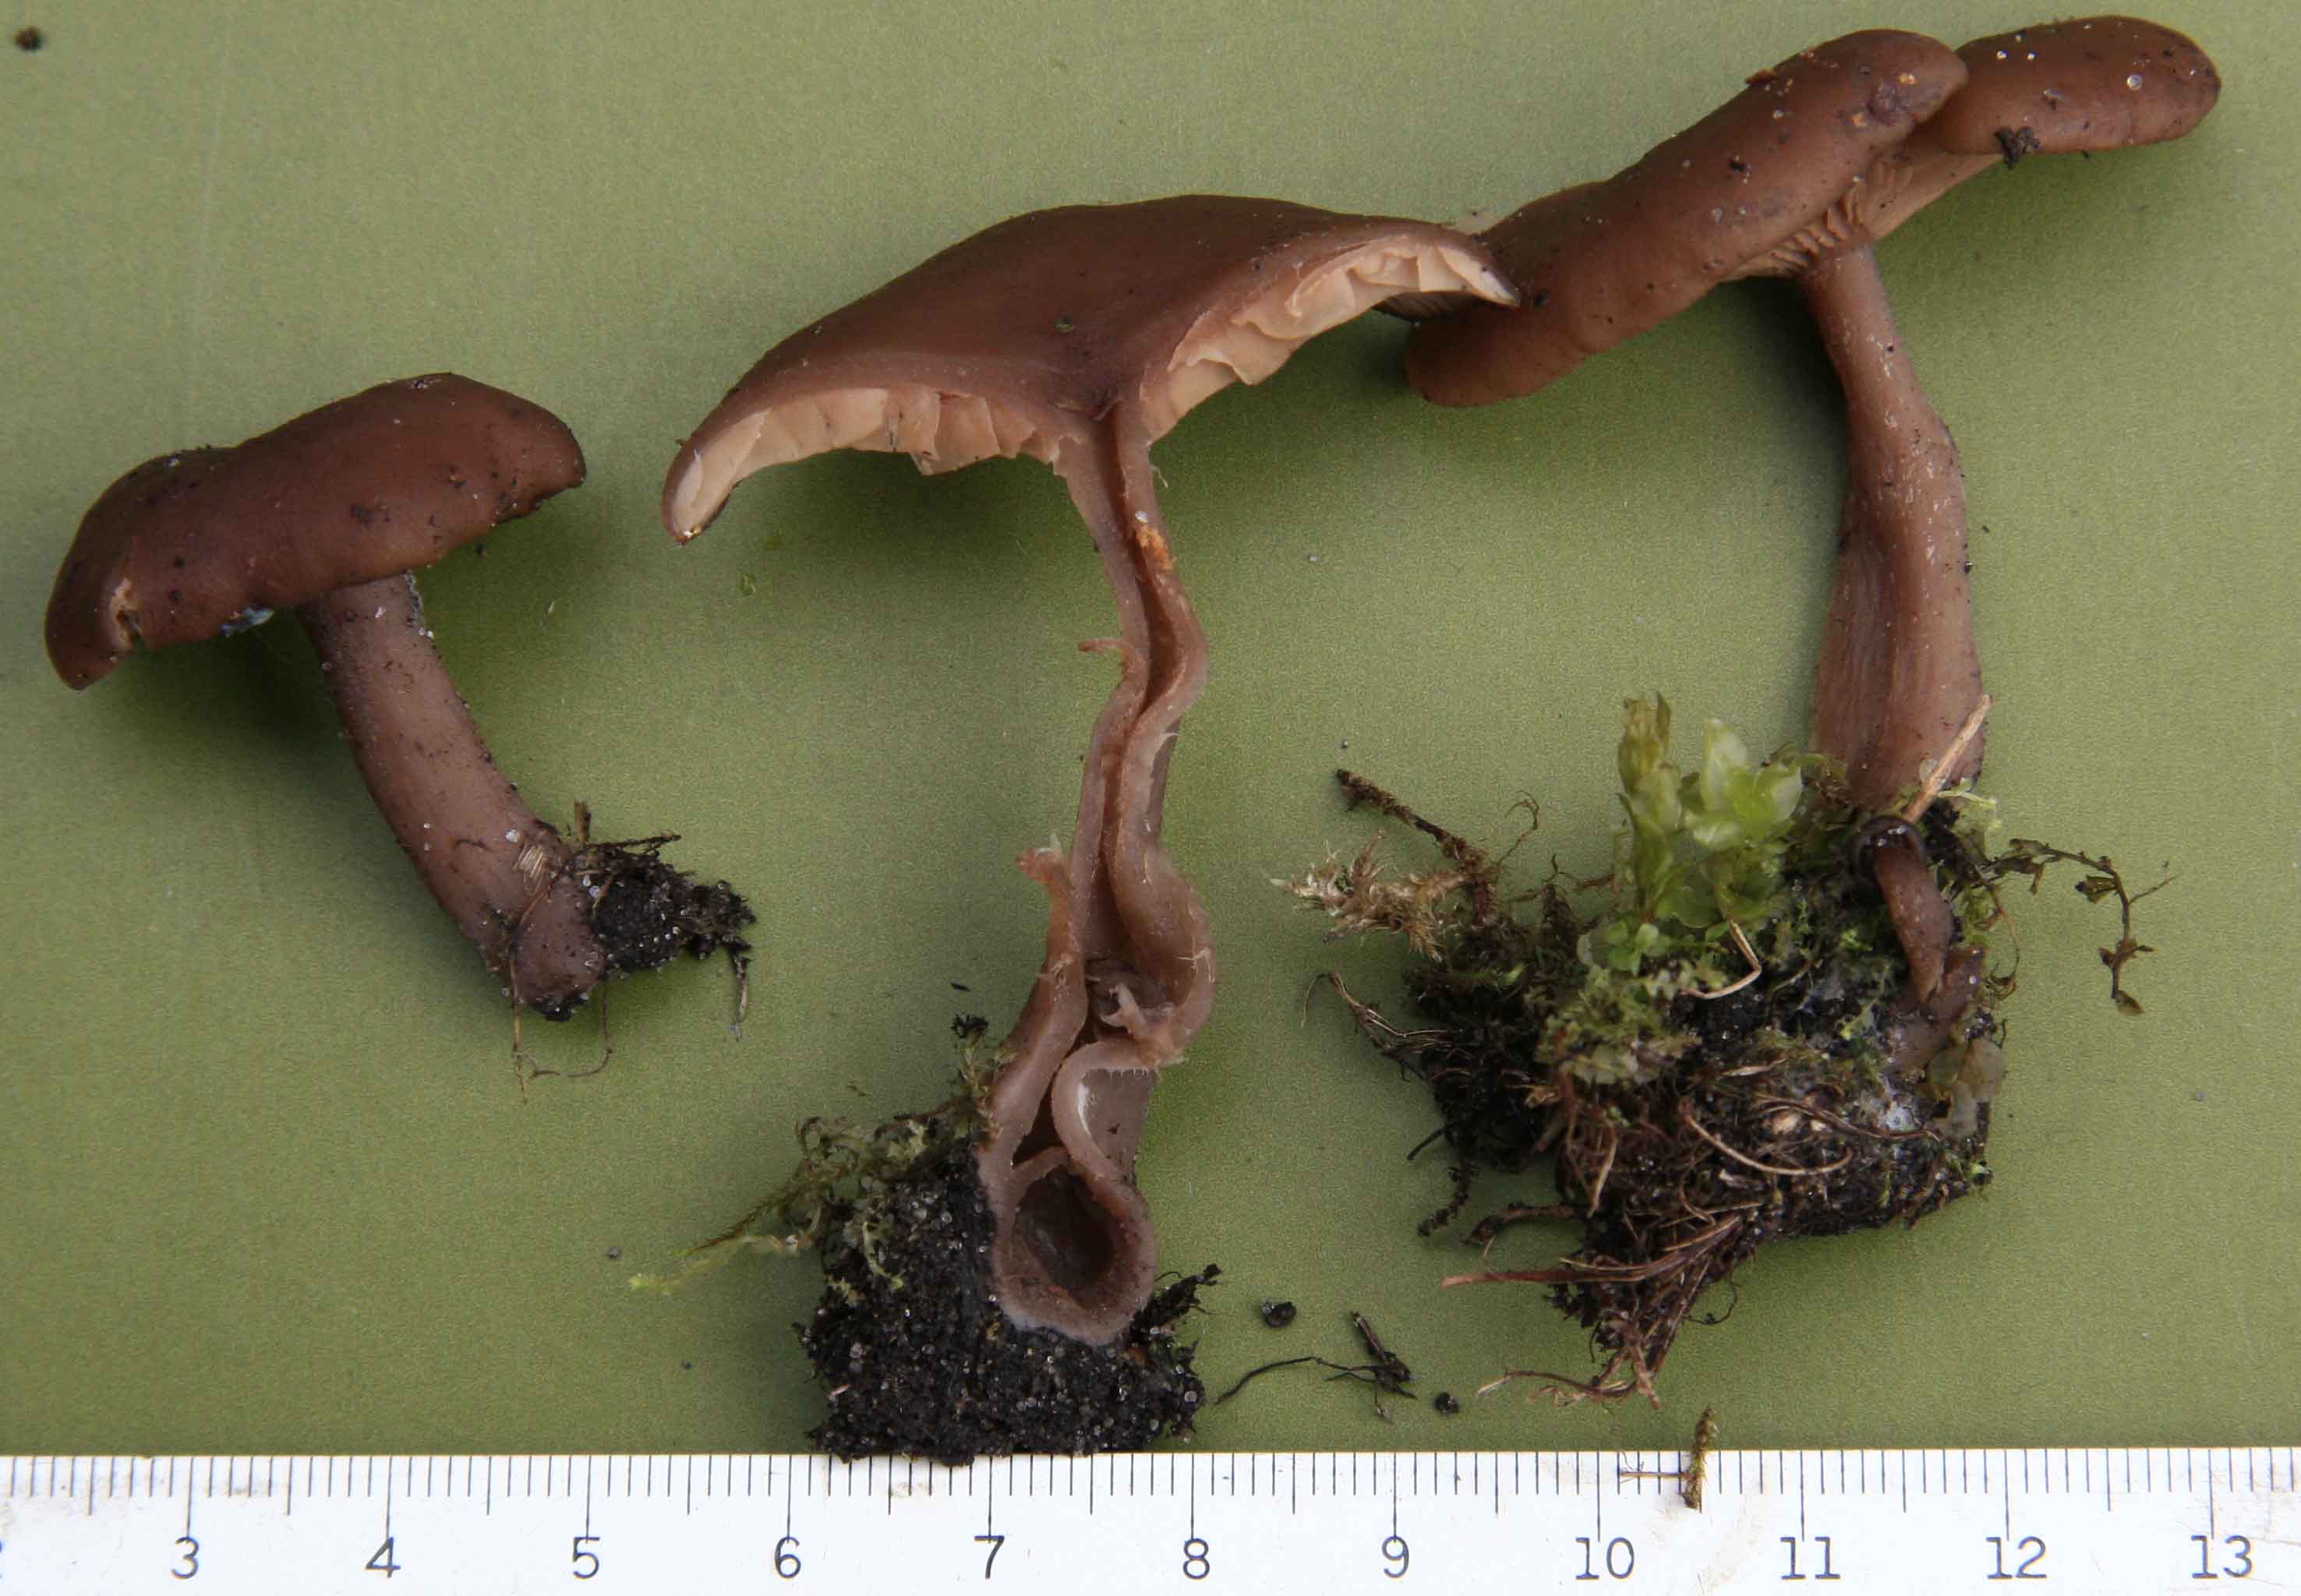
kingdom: Fungi
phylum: Basidiomycota
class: Agaricomycetes
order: Agaricales
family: Pseudoclitocybaceae
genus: Pseudoclitocybe
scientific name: Pseudoclitocybe cyathiformis
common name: almindelig bægertragthat
